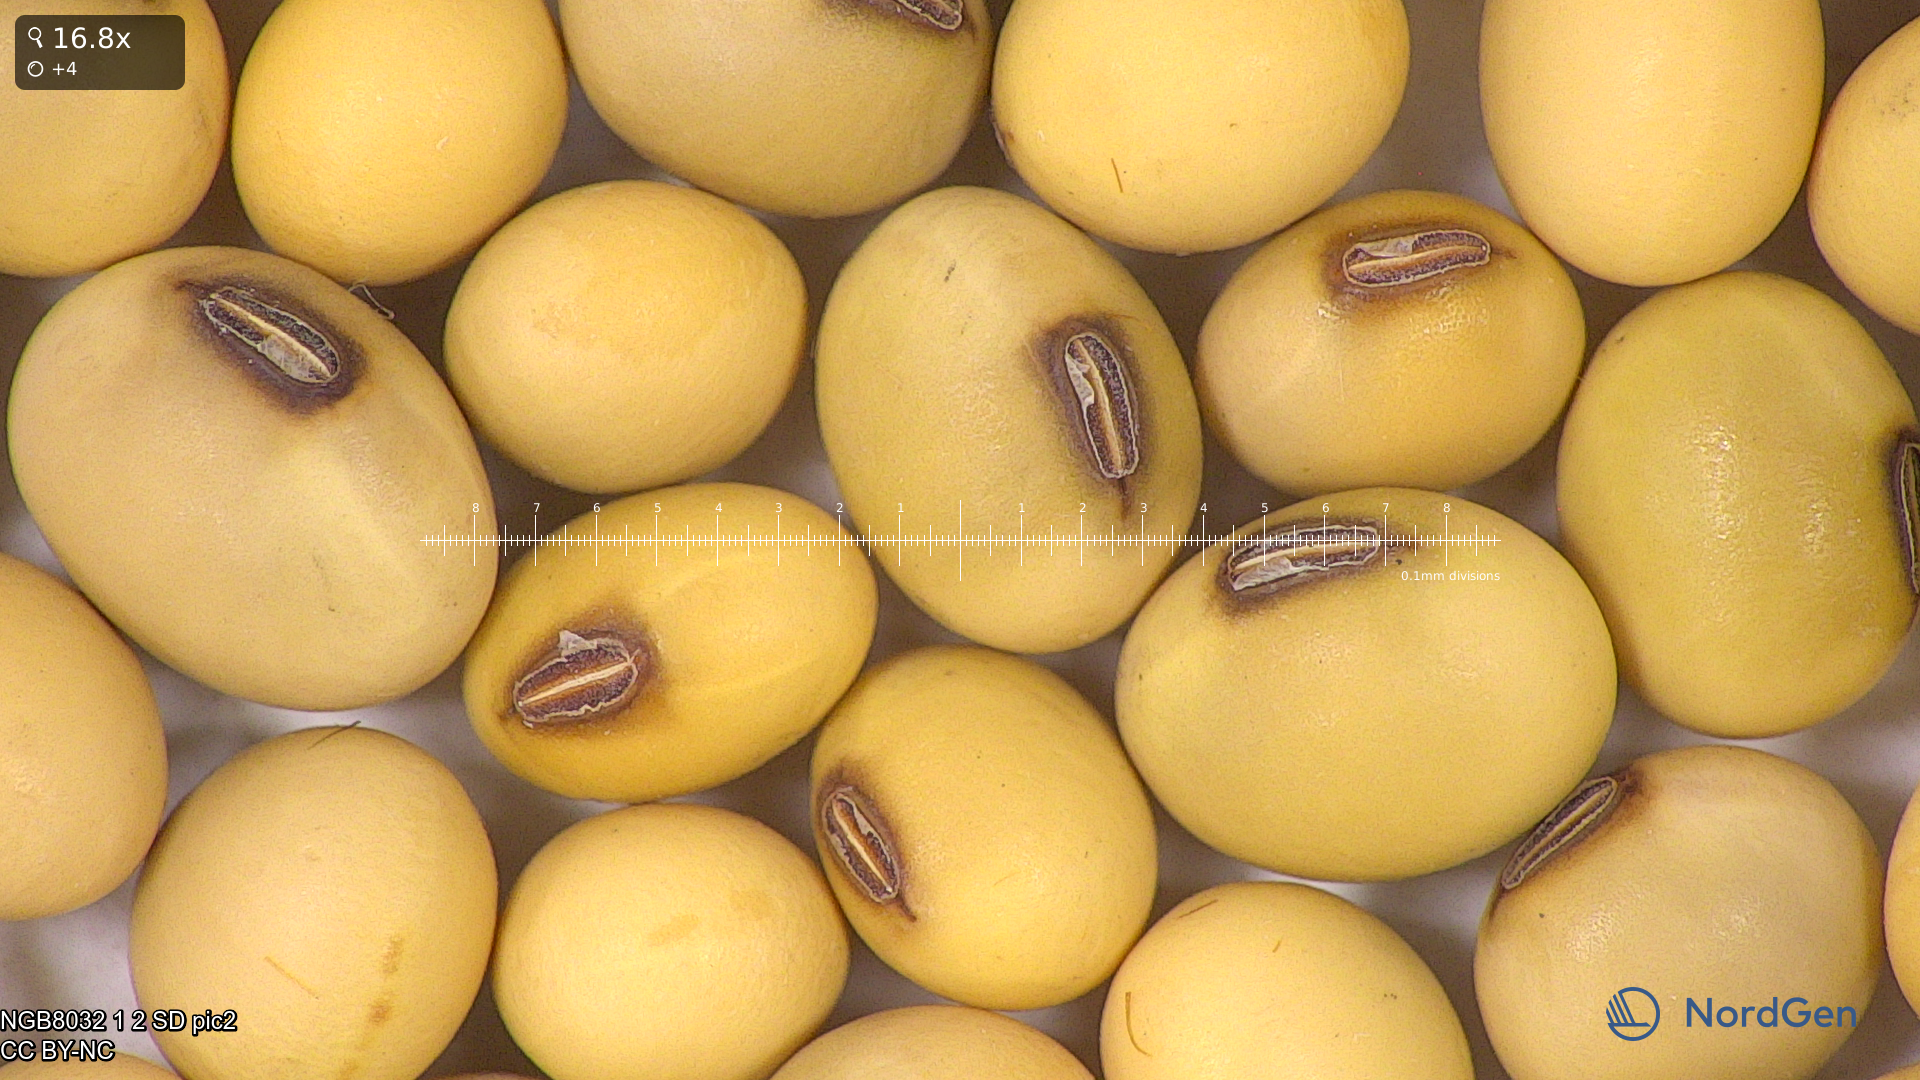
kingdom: Plantae
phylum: Tracheophyta
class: Magnoliopsida
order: Fabales
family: Fabaceae
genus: Glycine
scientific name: Glycine max
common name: Soya-bean
